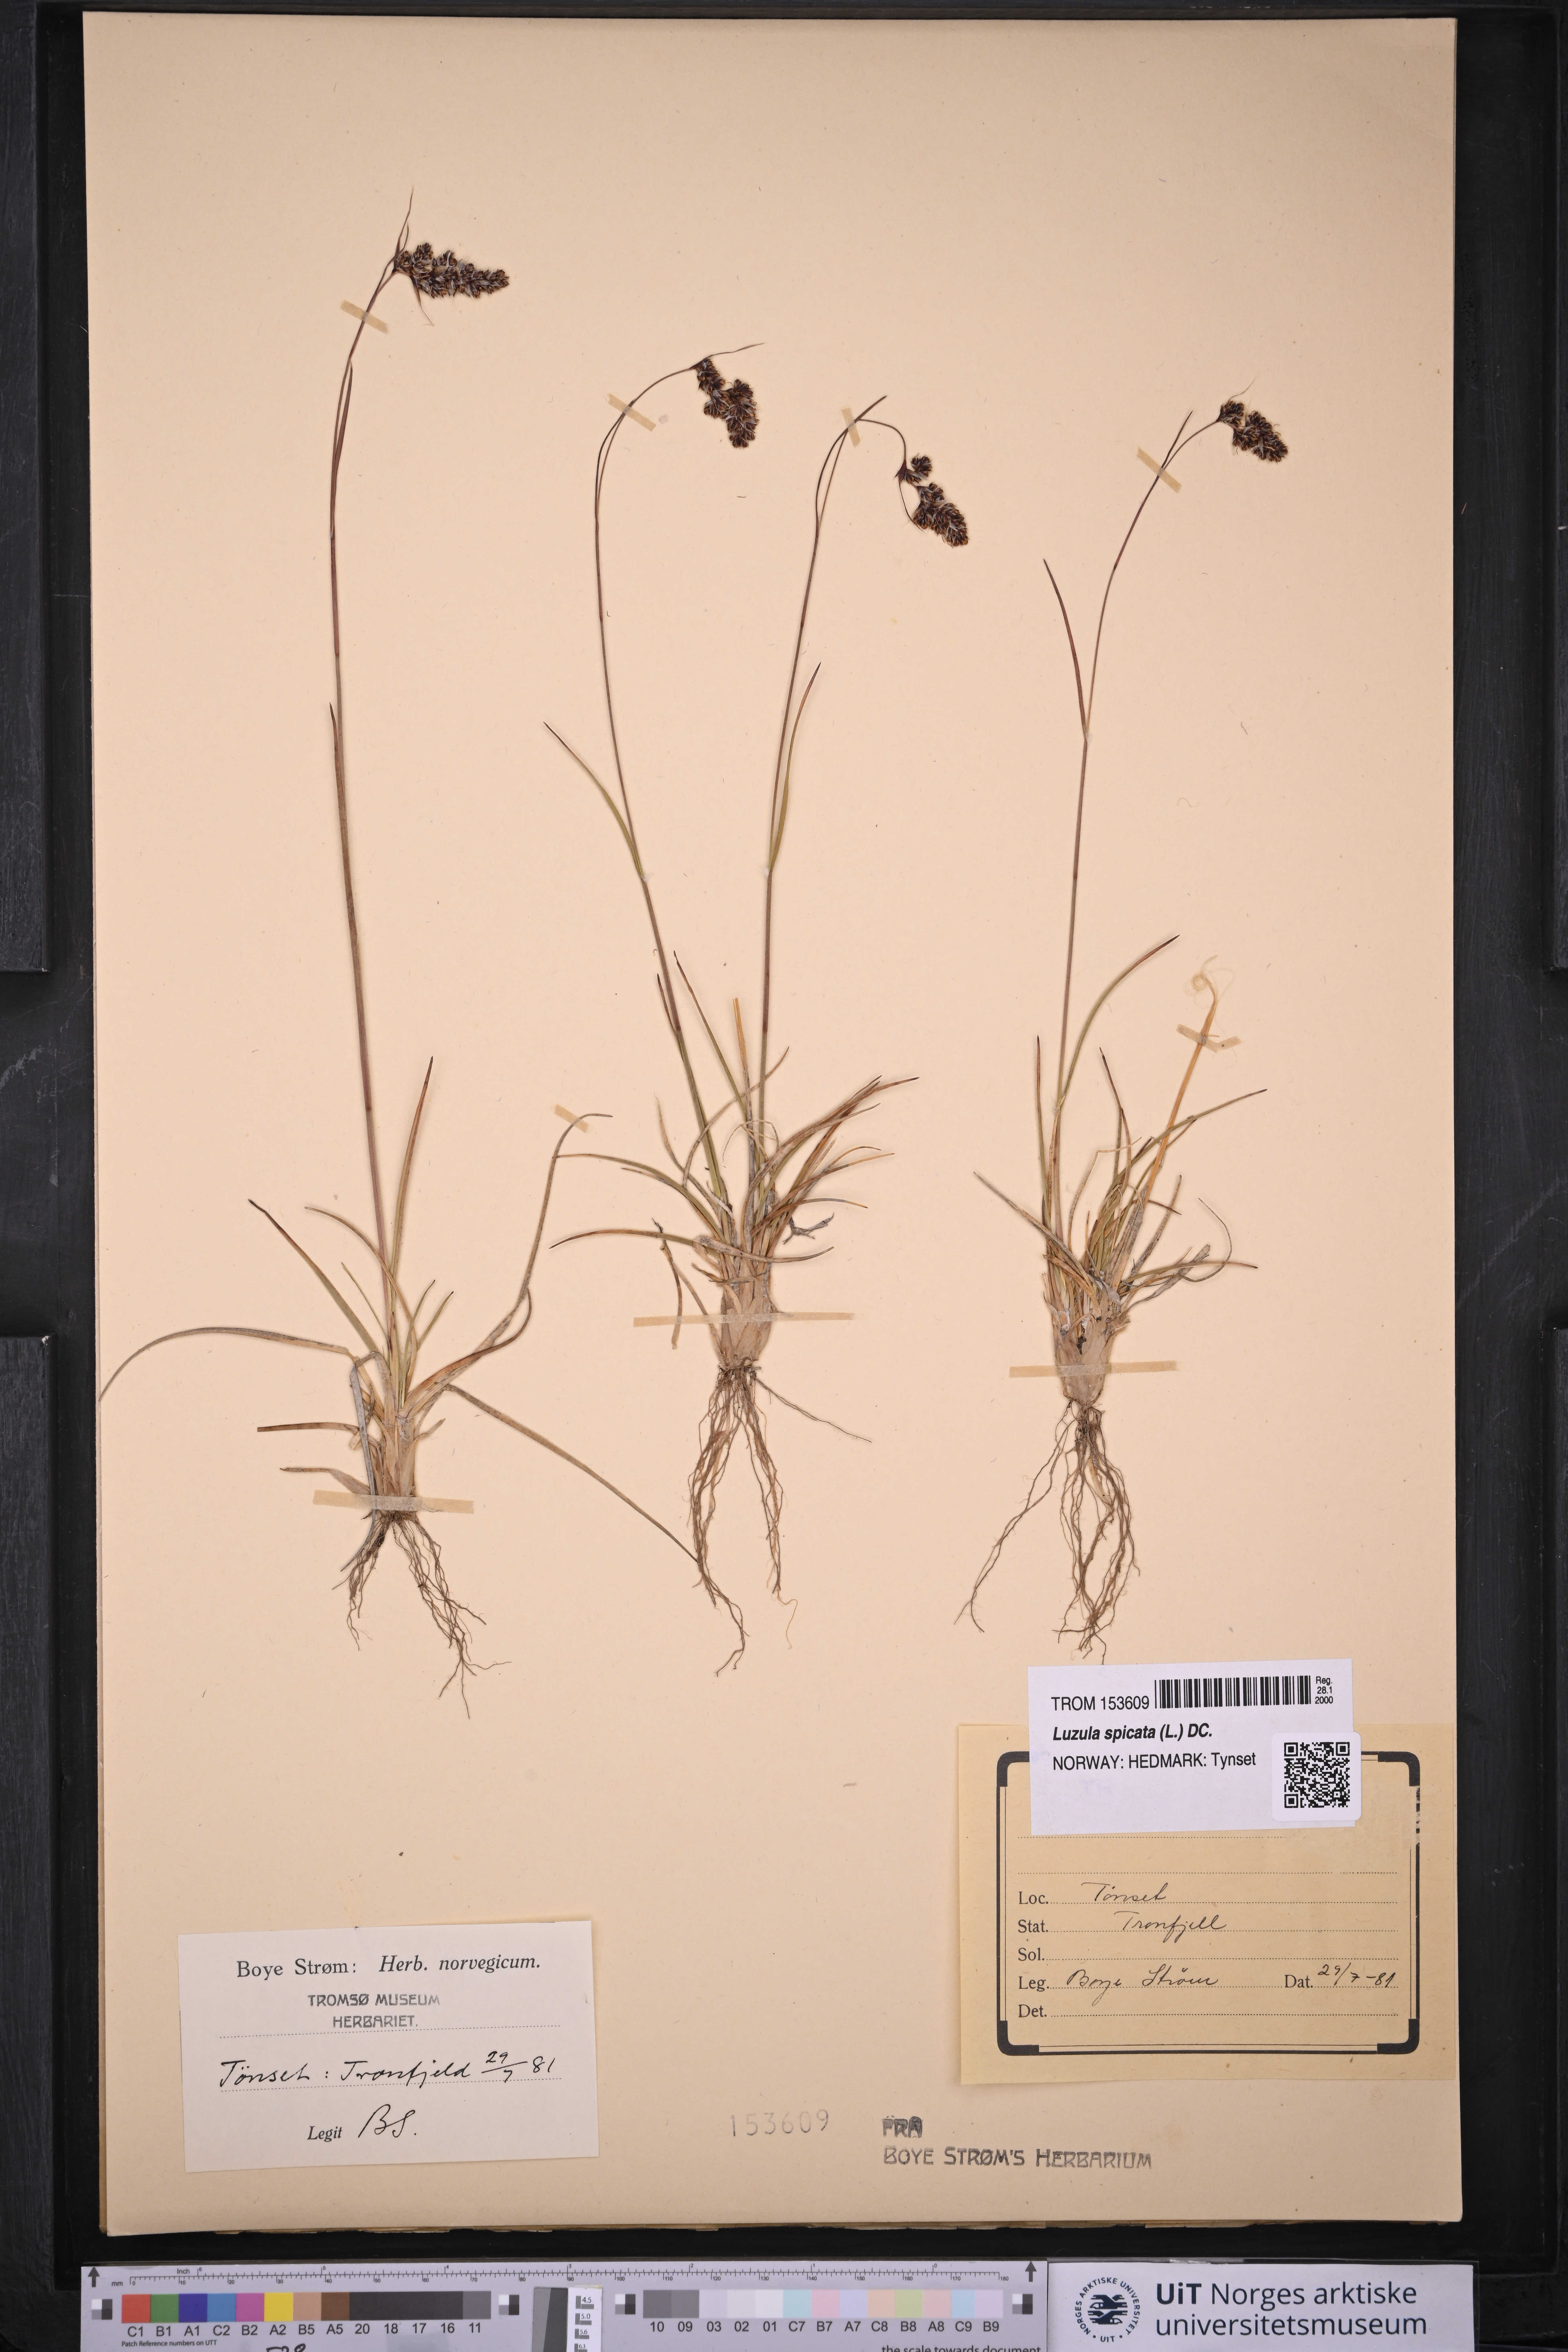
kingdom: Plantae
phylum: Tracheophyta
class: Liliopsida
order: Poales
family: Juncaceae
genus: Luzula
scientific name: Luzula spicata
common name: Spiked wood-rush
